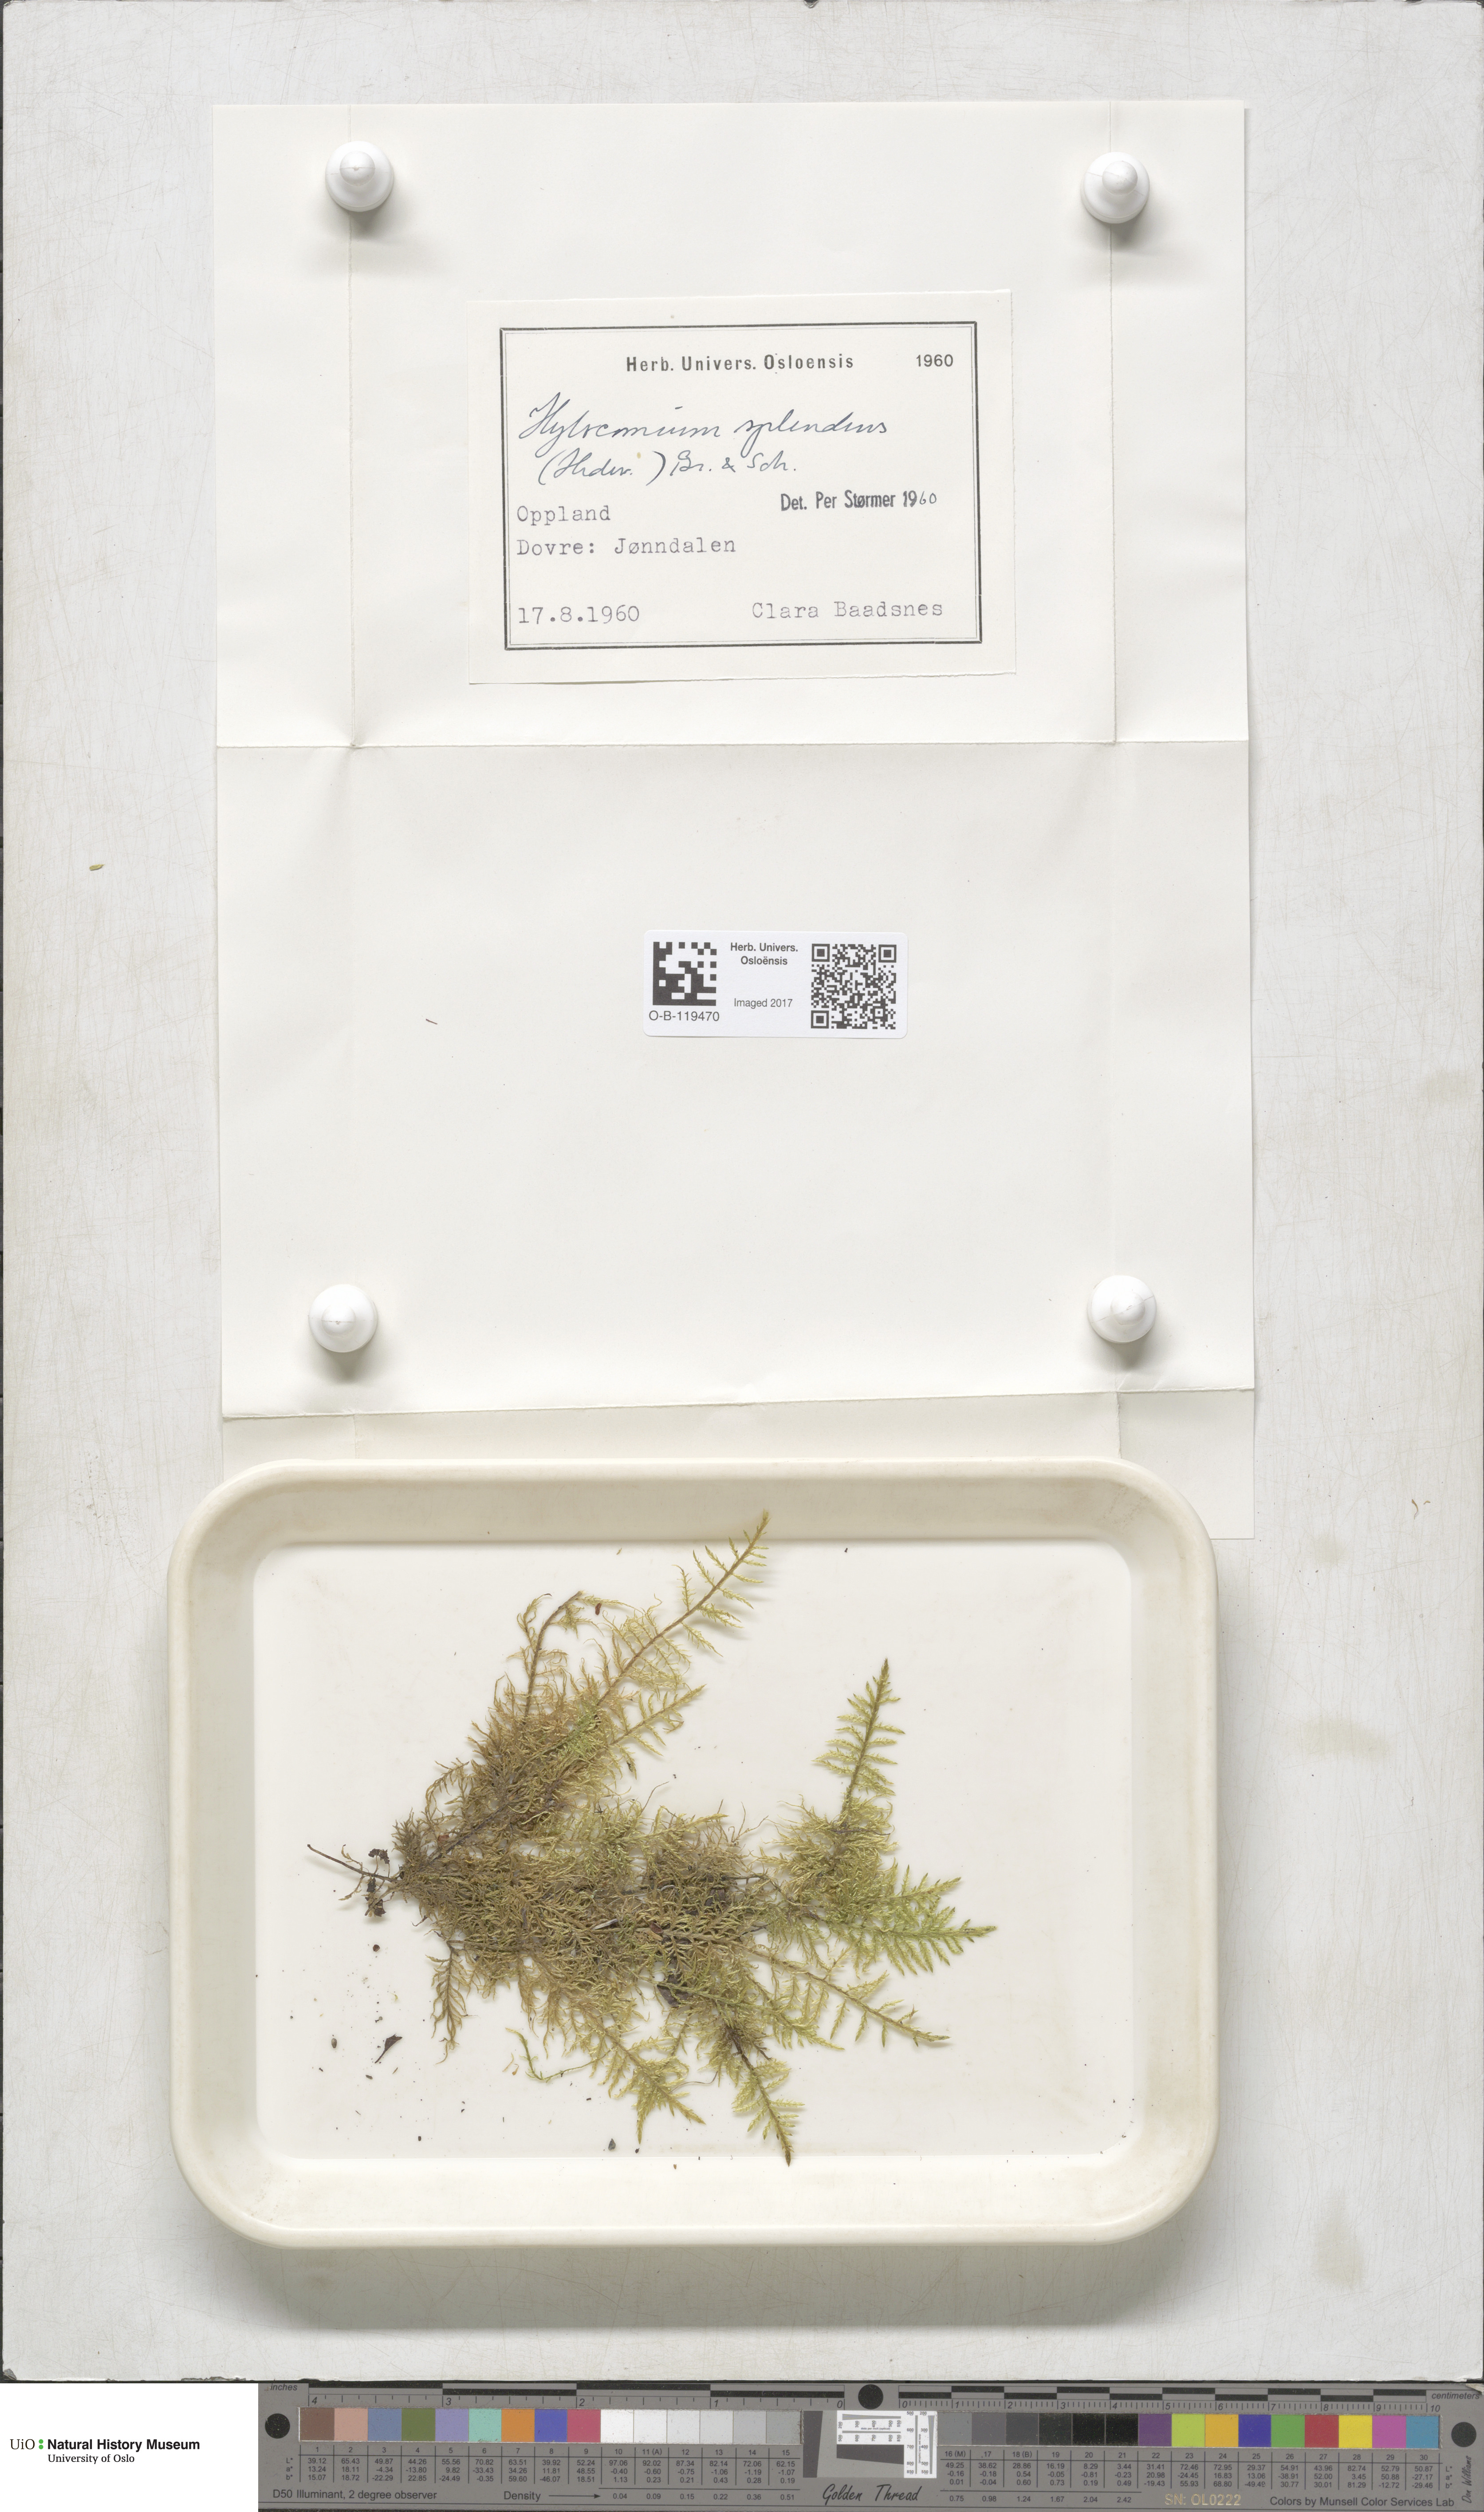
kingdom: Plantae
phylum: Bryophyta
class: Bryopsida
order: Hypnales
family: Hylocomiaceae
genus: Hylocomium
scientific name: Hylocomium splendens
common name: Stairstep moss
